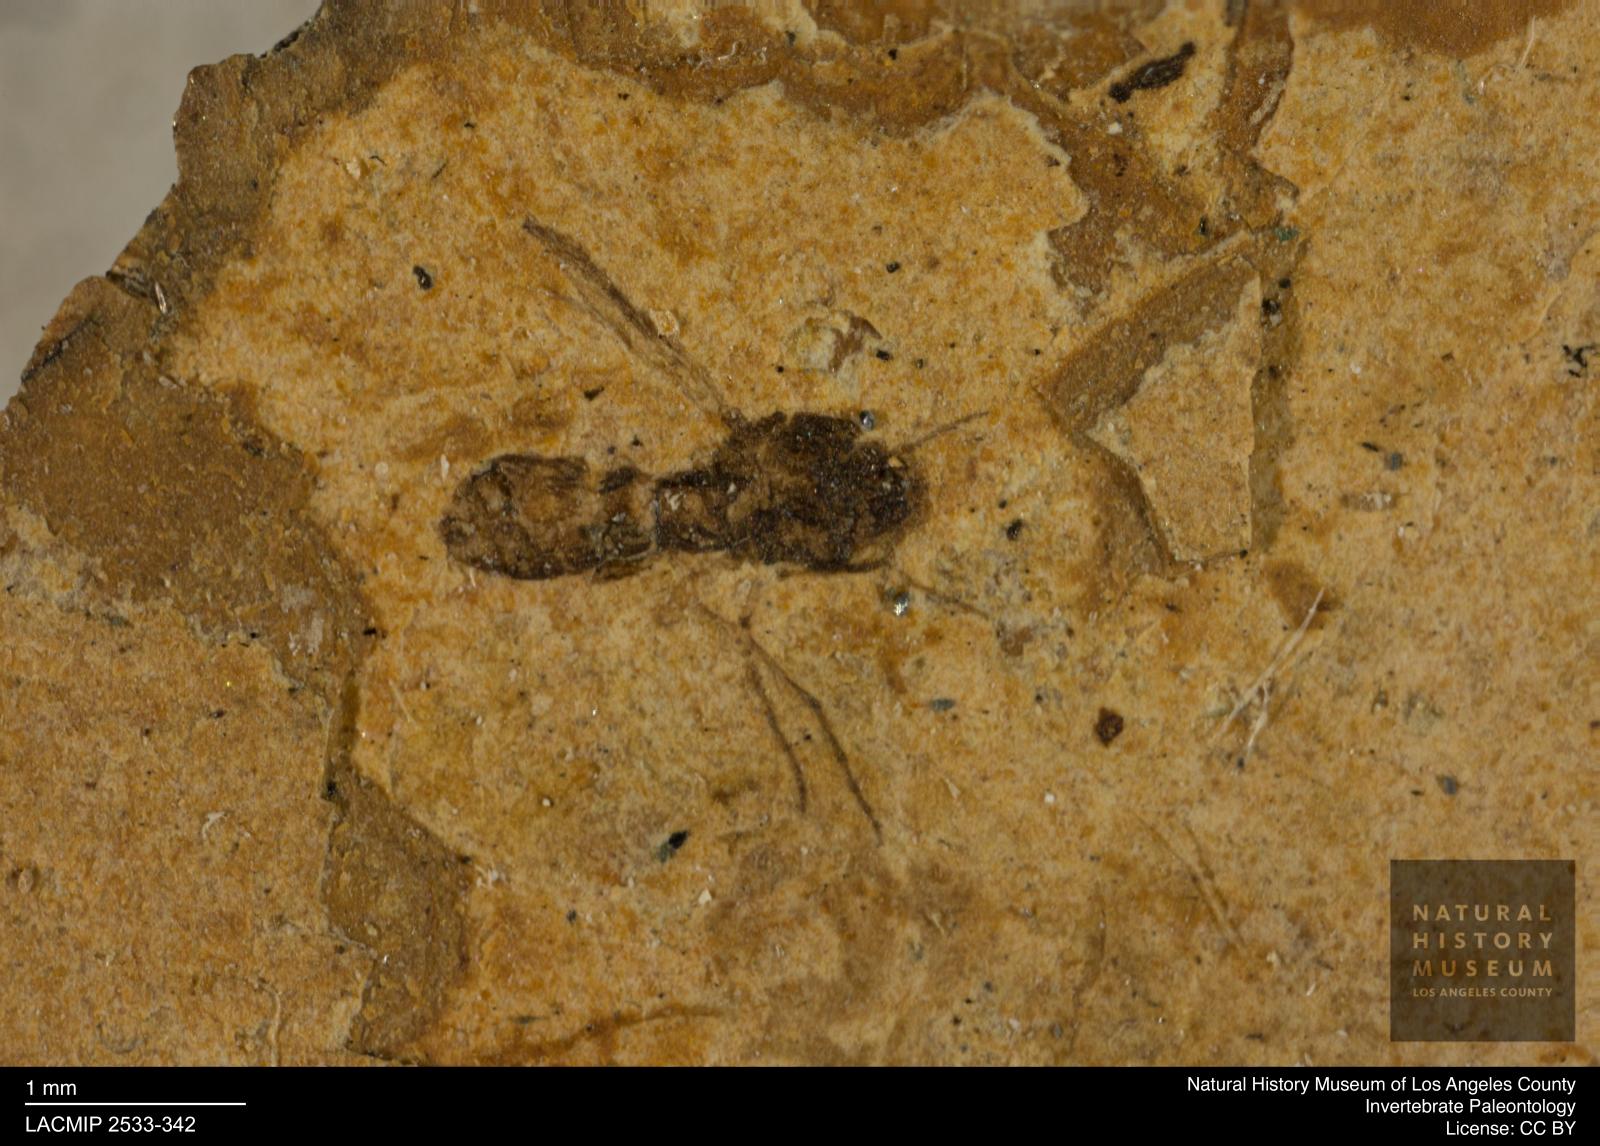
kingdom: Animalia
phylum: Arthropoda
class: Insecta
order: Diptera
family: Ceratopogonidae
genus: Culicoides
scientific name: Culicoides ventralis
